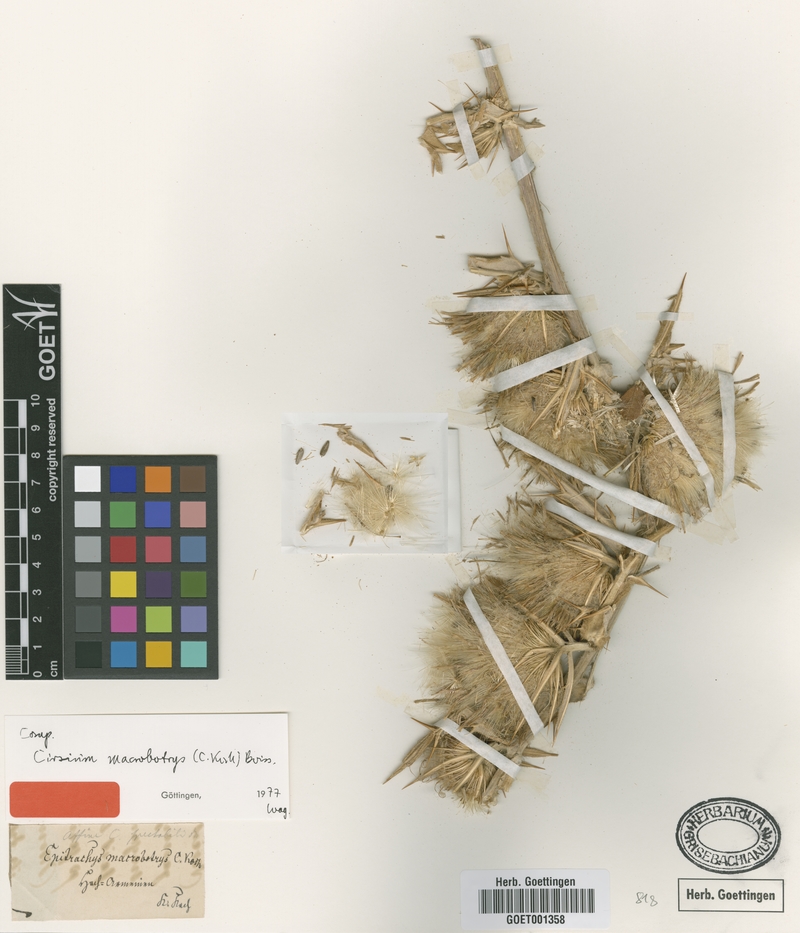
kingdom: Plantae
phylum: Tracheophyta
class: Magnoliopsida
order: Asterales
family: Asteraceae
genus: Lophiolepis
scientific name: Lophiolepis macrobotrys
